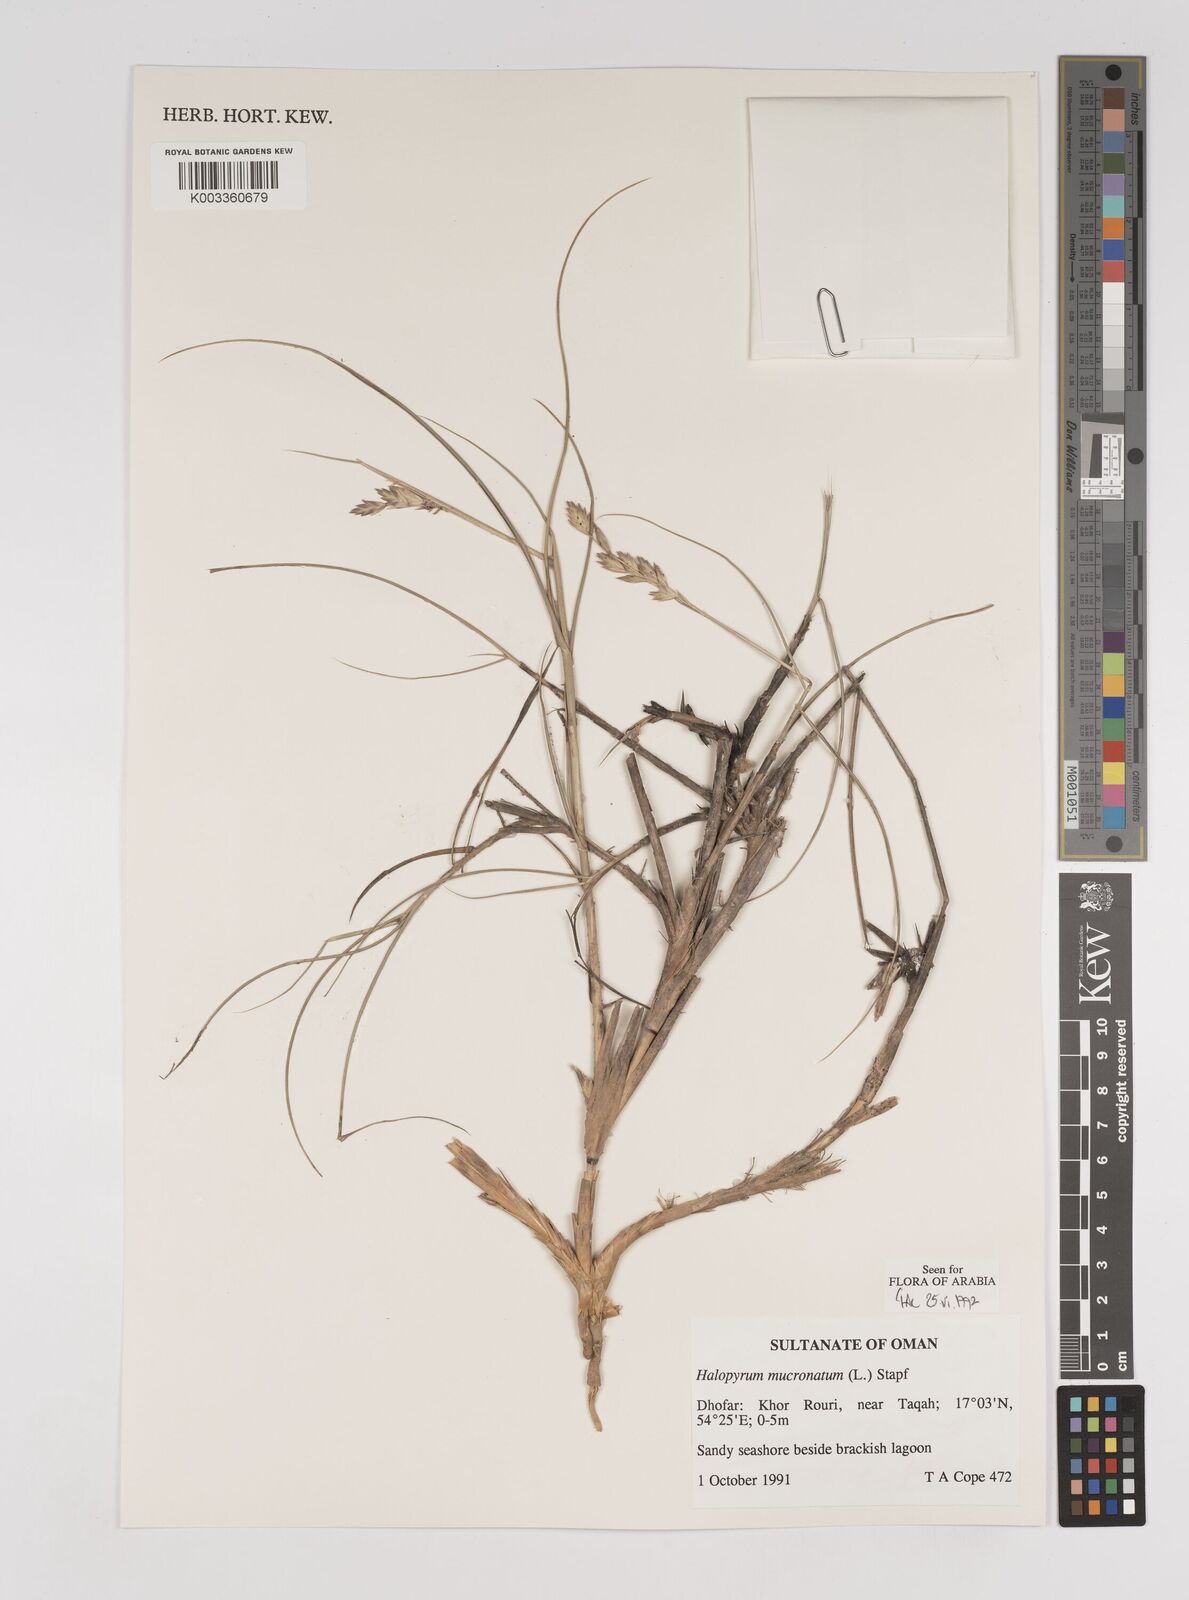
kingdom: Plantae
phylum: Tracheophyta
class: Liliopsida
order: Poales
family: Poaceae
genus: Halopyrum
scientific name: Halopyrum mucronatum
